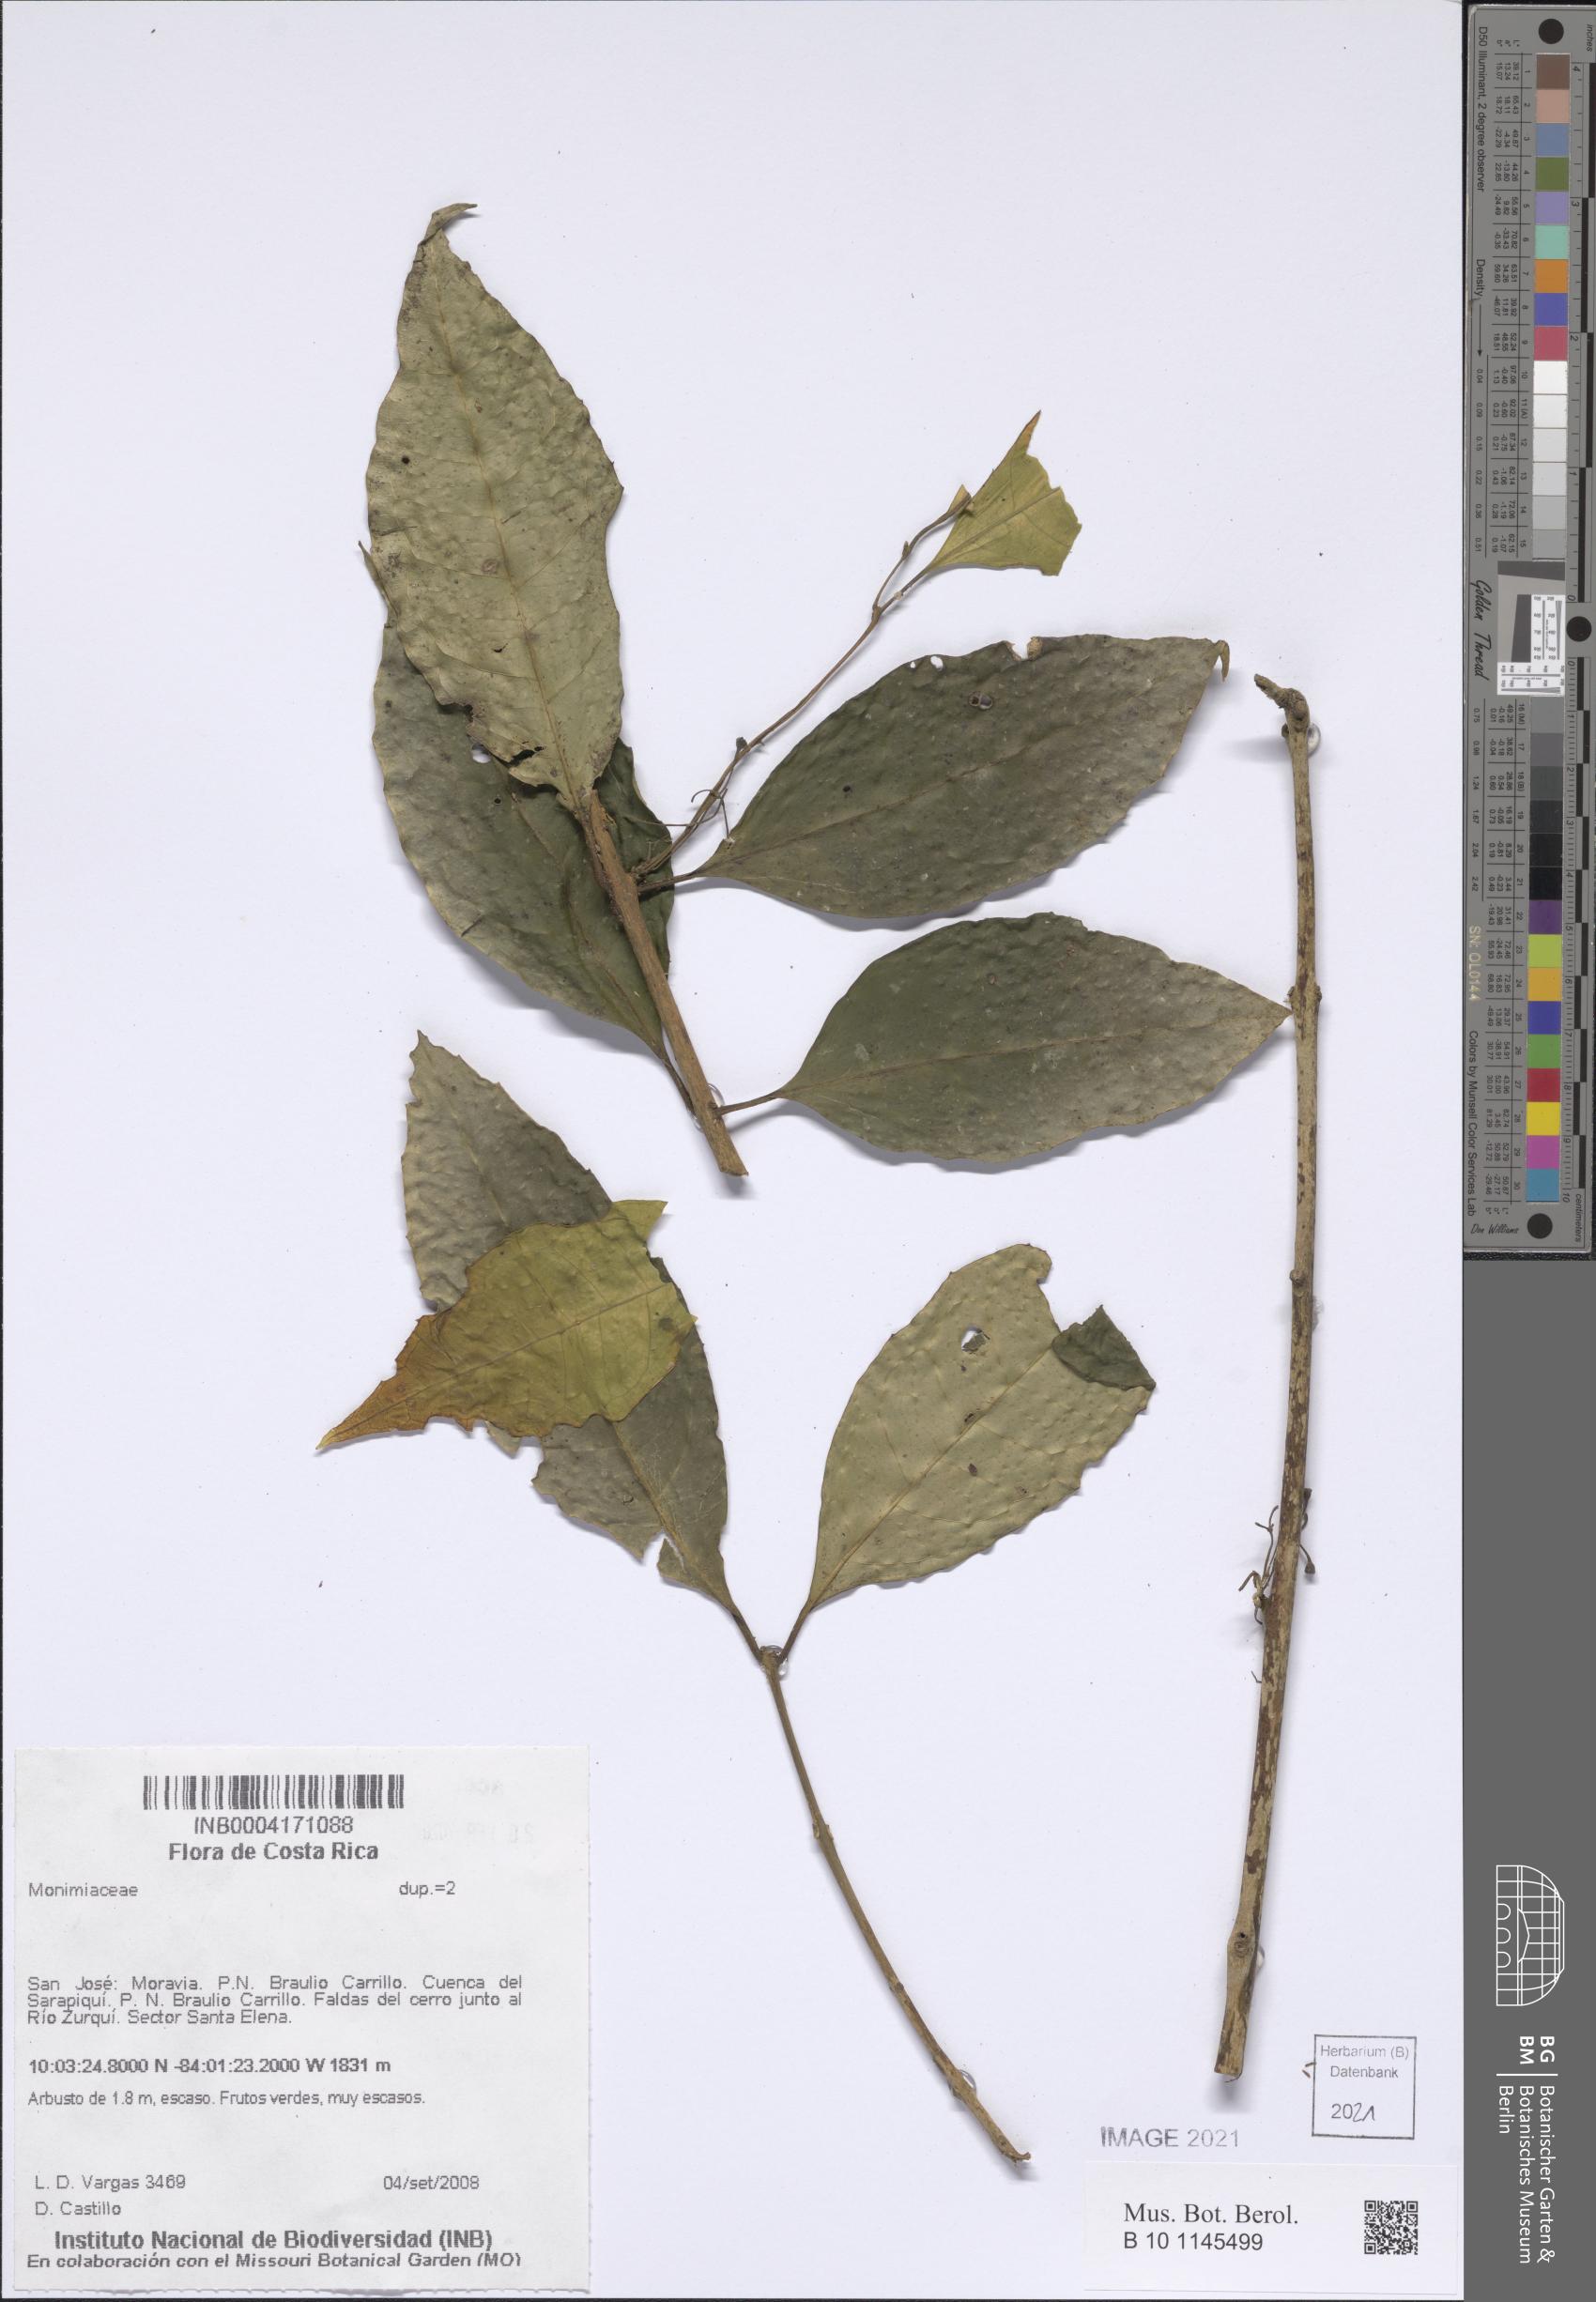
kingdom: Plantae
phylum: Tracheophyta
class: Magnoliopsida
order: Laurales
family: Monimiaceae
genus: Mollinedia
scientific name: Mollinedia viridiflora
